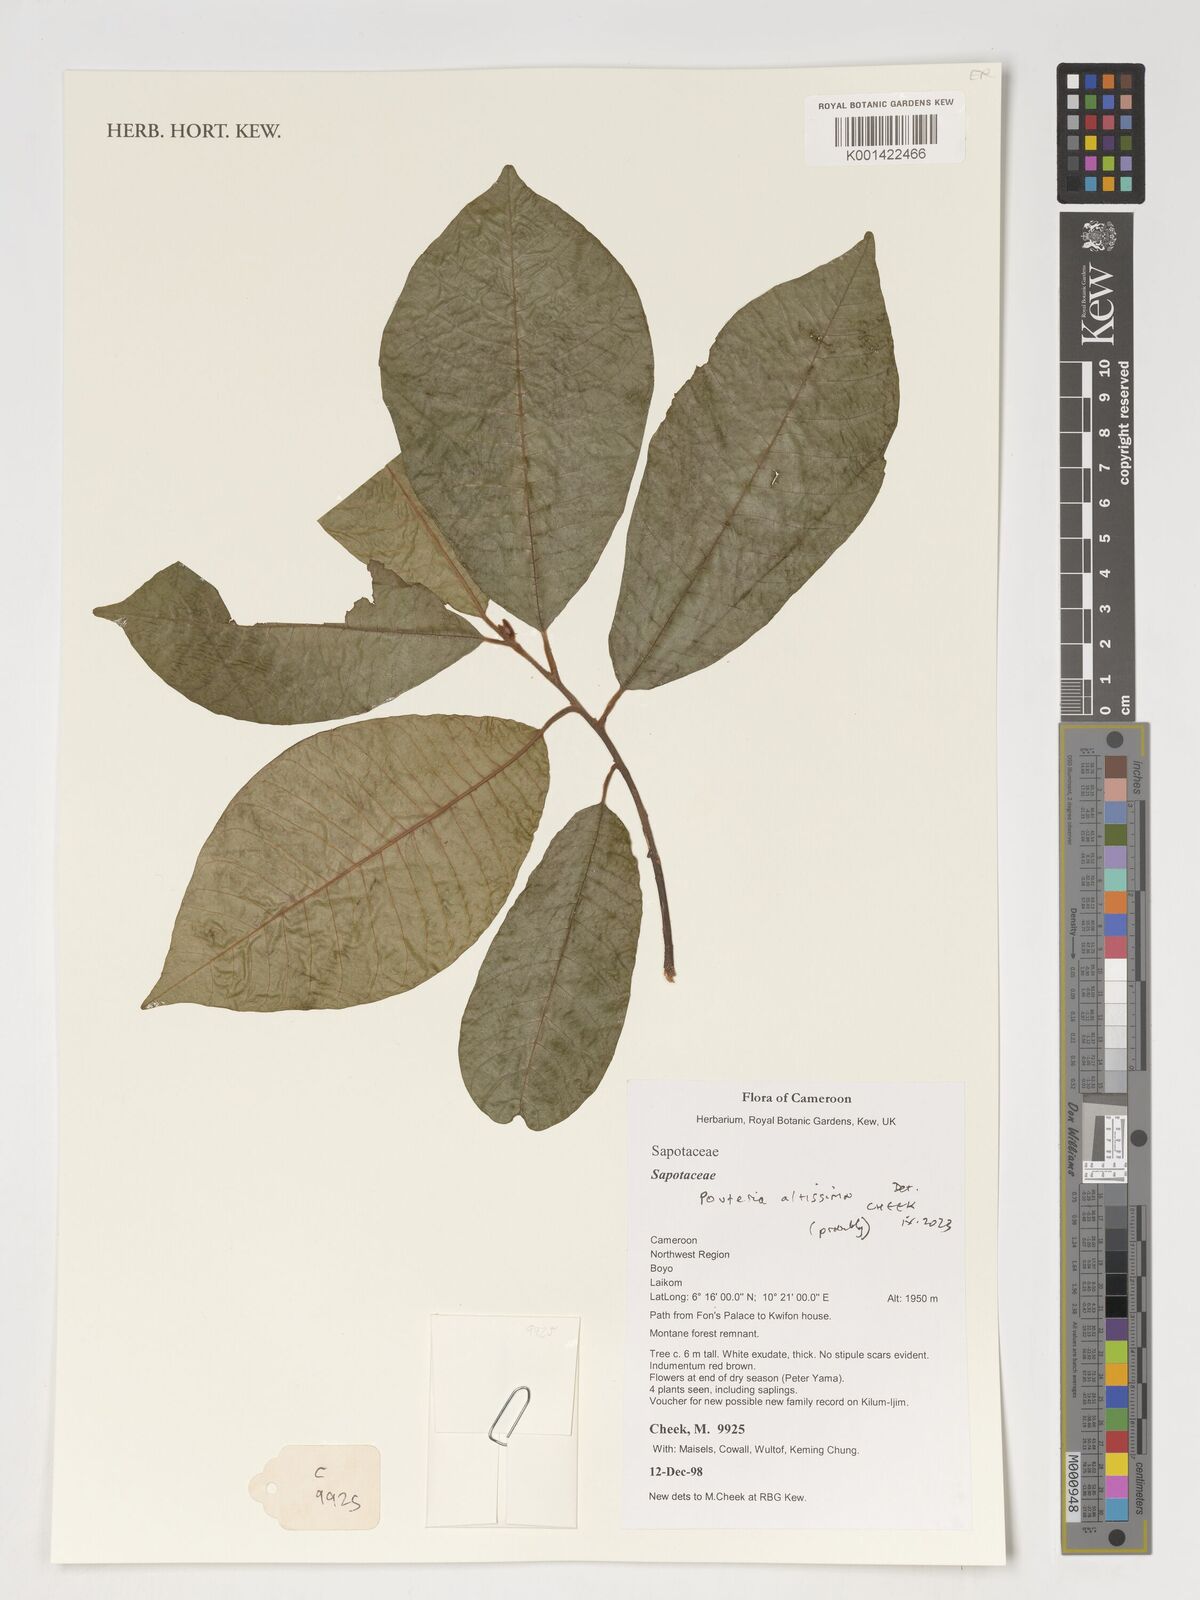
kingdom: Plantae
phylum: Tracheophyta
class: Magnoliopsida
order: Ericales
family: Sapotaceae
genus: Aningeria
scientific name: Aningeria altissima
